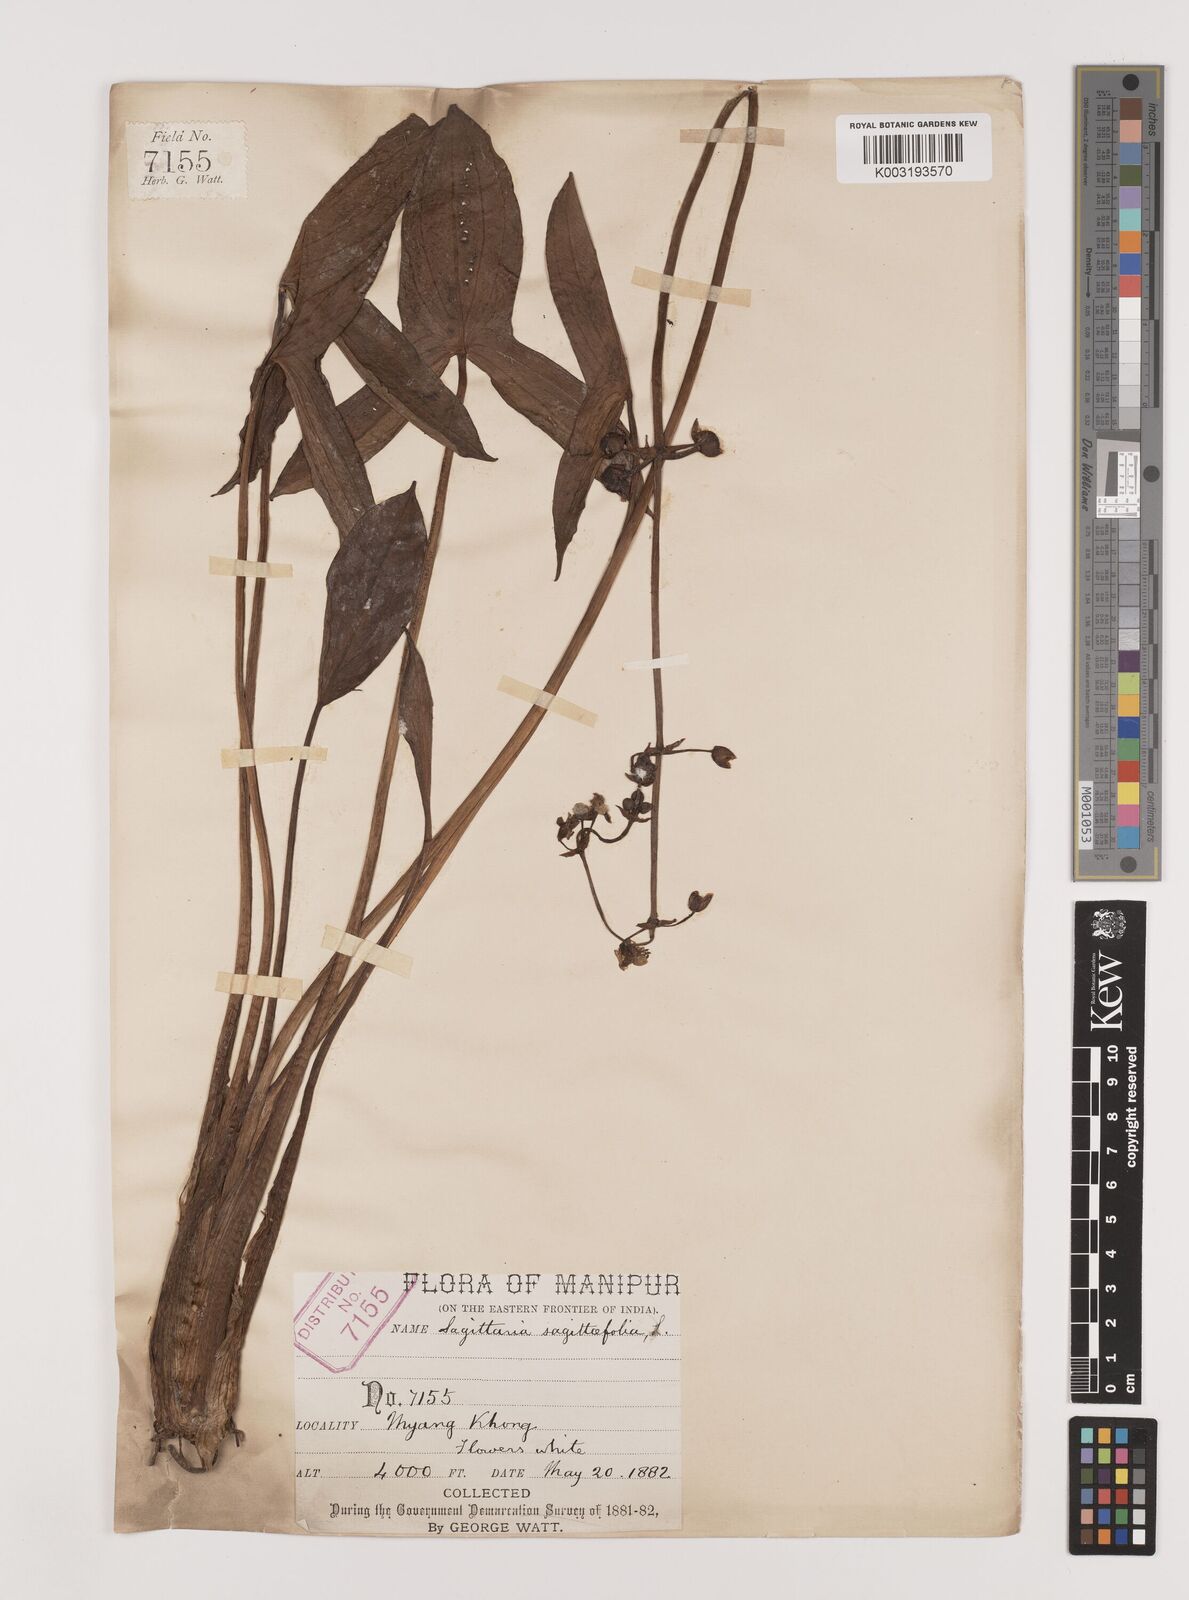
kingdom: Plantae
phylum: Tracheophyta
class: Liliopsida
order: Alismatales
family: Alismataceae
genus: Sagittaria
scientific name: Sagittaria sagittifolia
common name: Arrowhead
